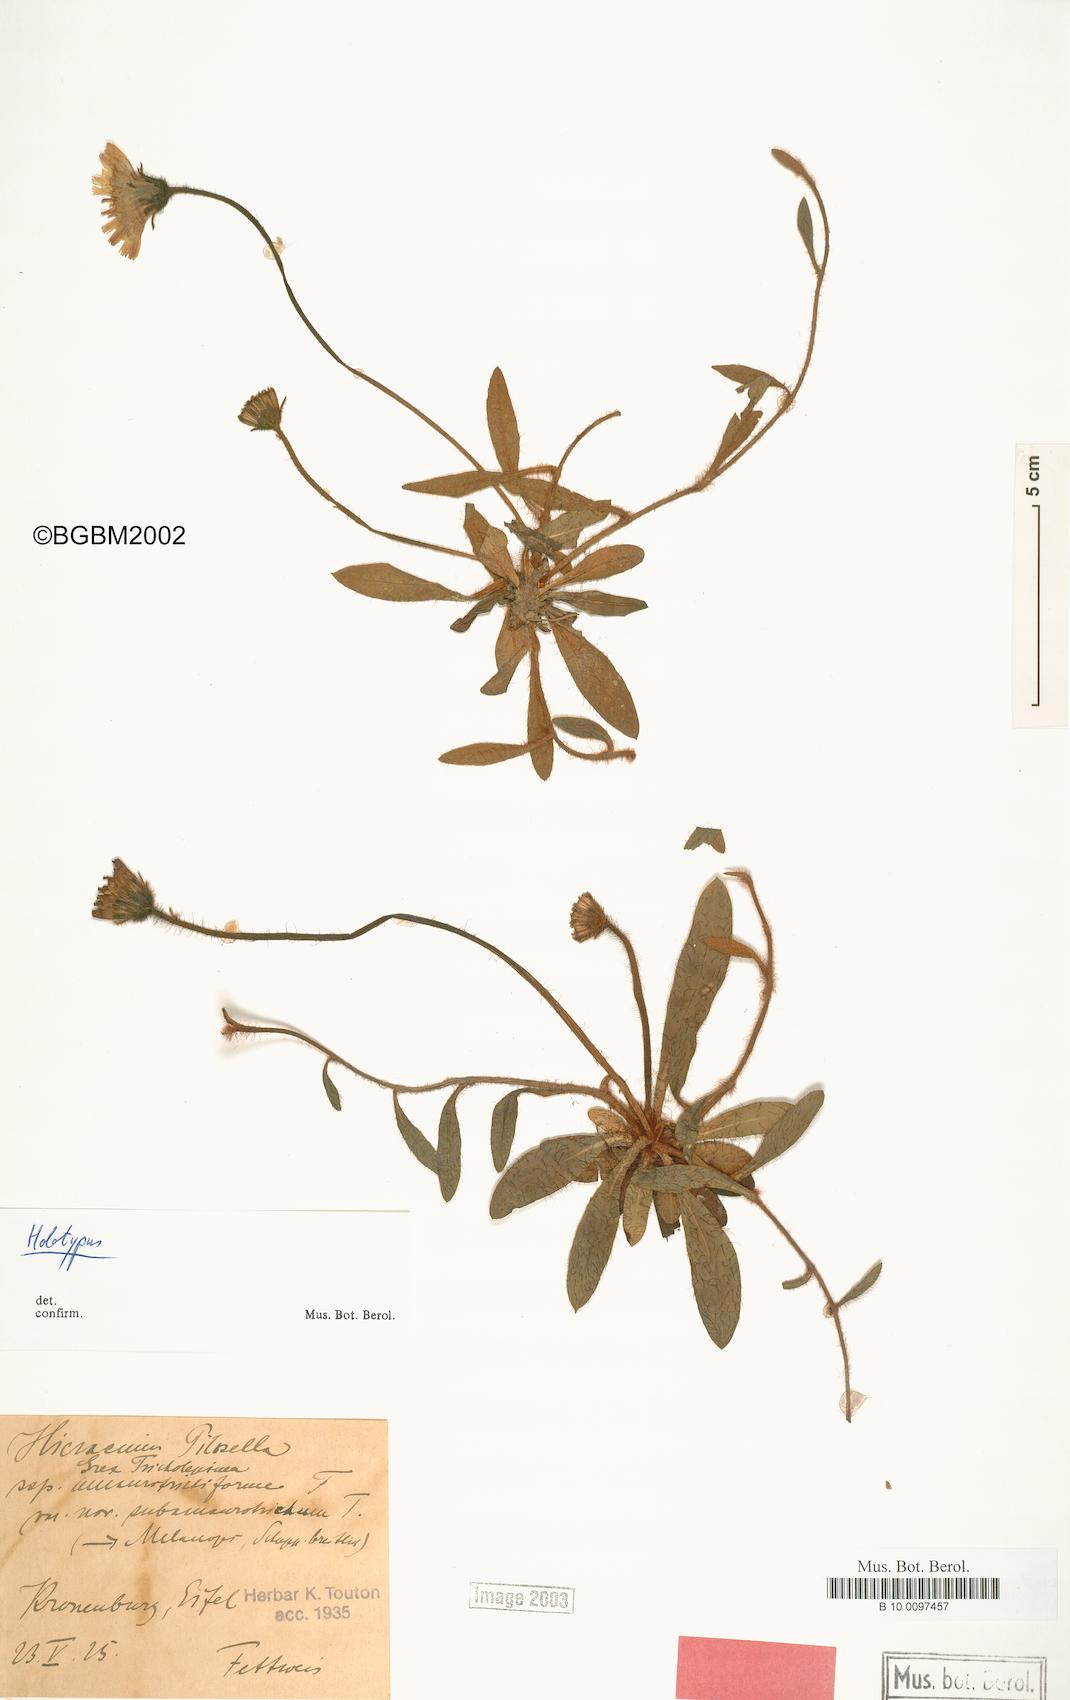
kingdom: Plantae
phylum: Tracheophyta
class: Magnoliopsida
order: Asterales
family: Asteraceae
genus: Pilosella
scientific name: Pilosella officinarum
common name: Mouse-ear hawkweed
